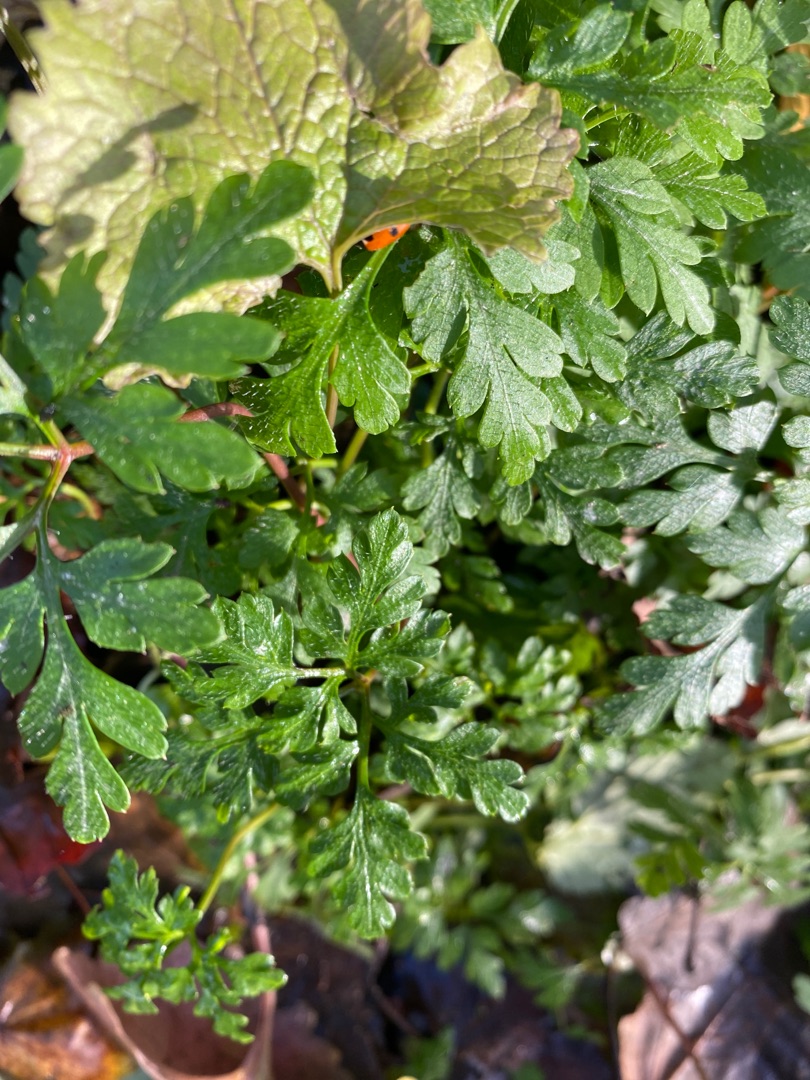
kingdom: Plantae
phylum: Tracheophyta
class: Magnoliopsida
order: Geraniales
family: Geraniaceae
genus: Geranium
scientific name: Geranium robertianum
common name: Stinkende storkenæb
